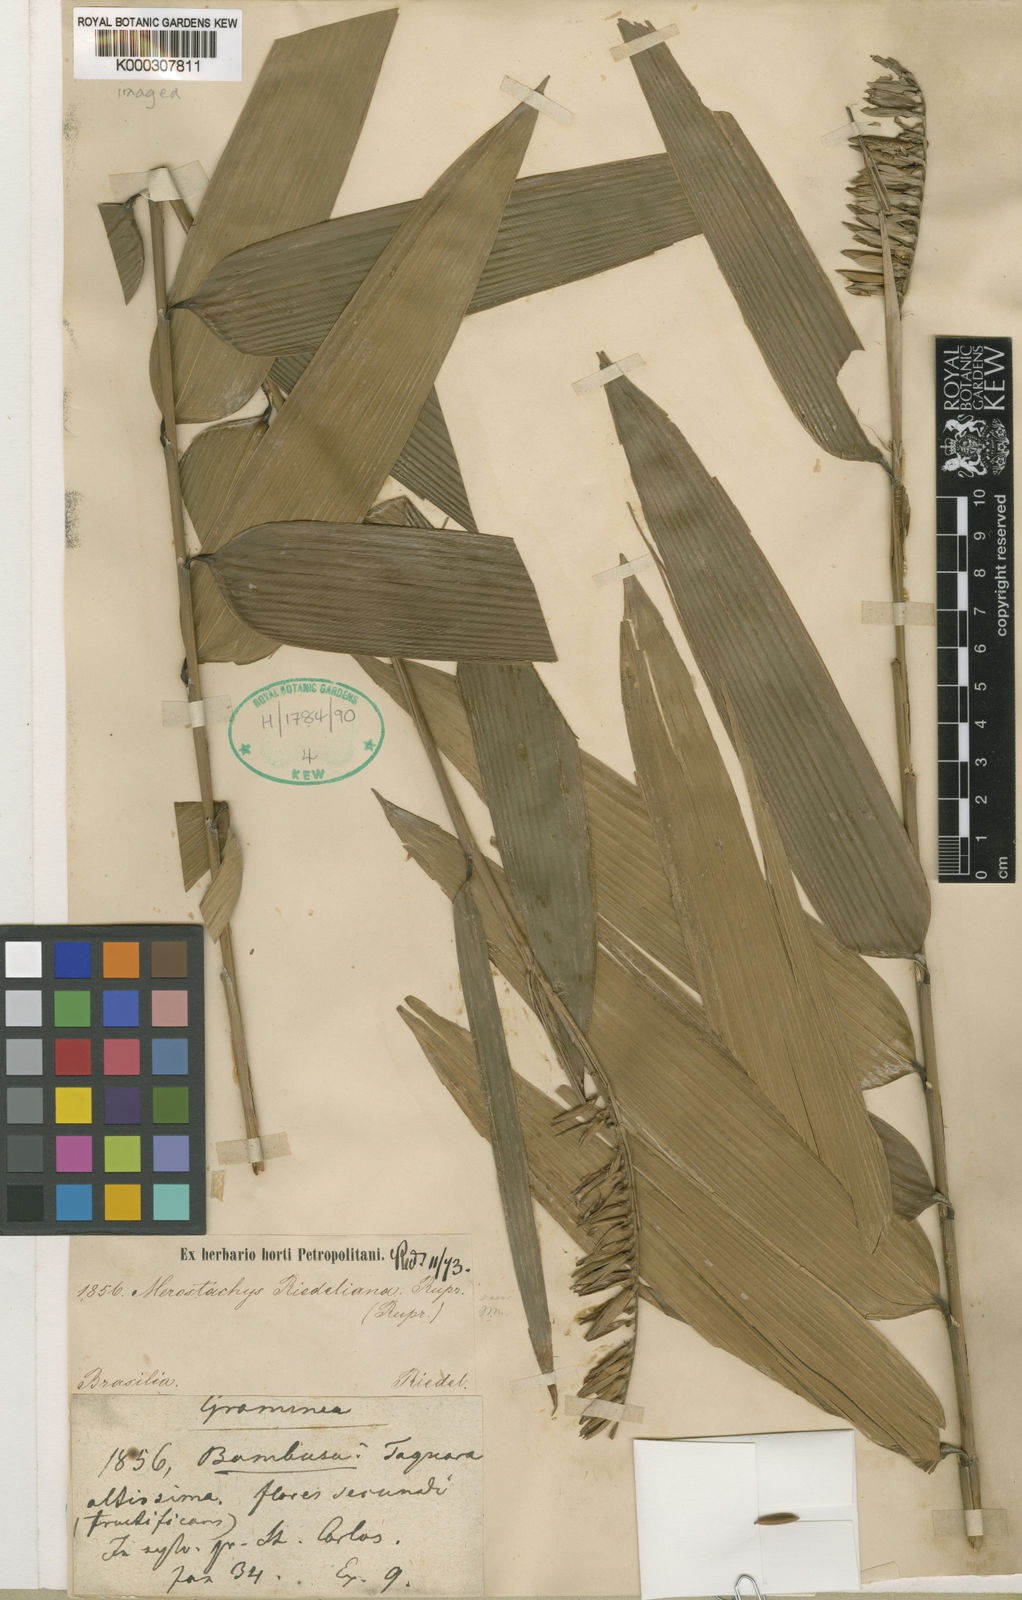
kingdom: Plantae
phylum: Tracheophyta
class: Liliopsida
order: Poales
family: Poaceae
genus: Merostachys
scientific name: Merostachys
